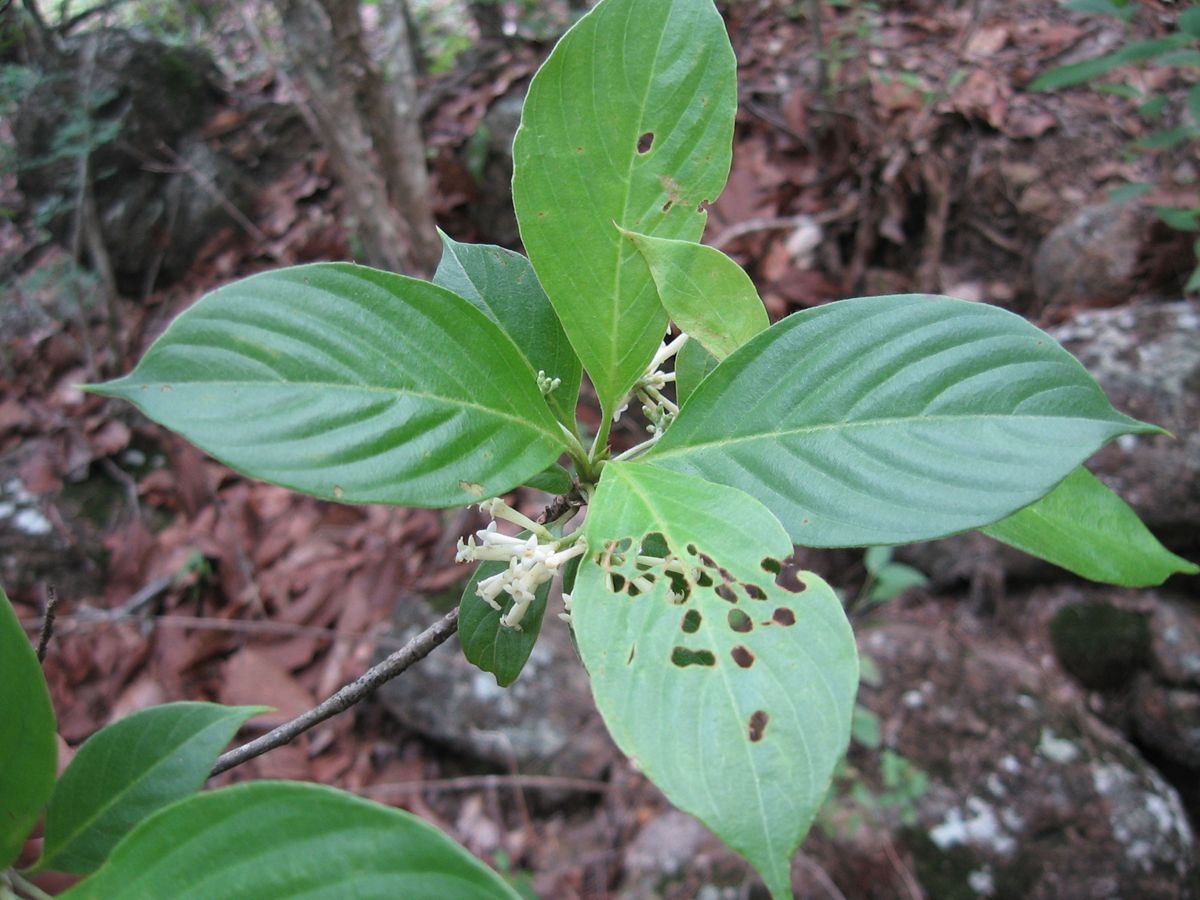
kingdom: Plantae
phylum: Tracheophyta
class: Magnoliopsida
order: Gentianales
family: Rubiaceae
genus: Pittoniotis
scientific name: Pittoniotis protracta
